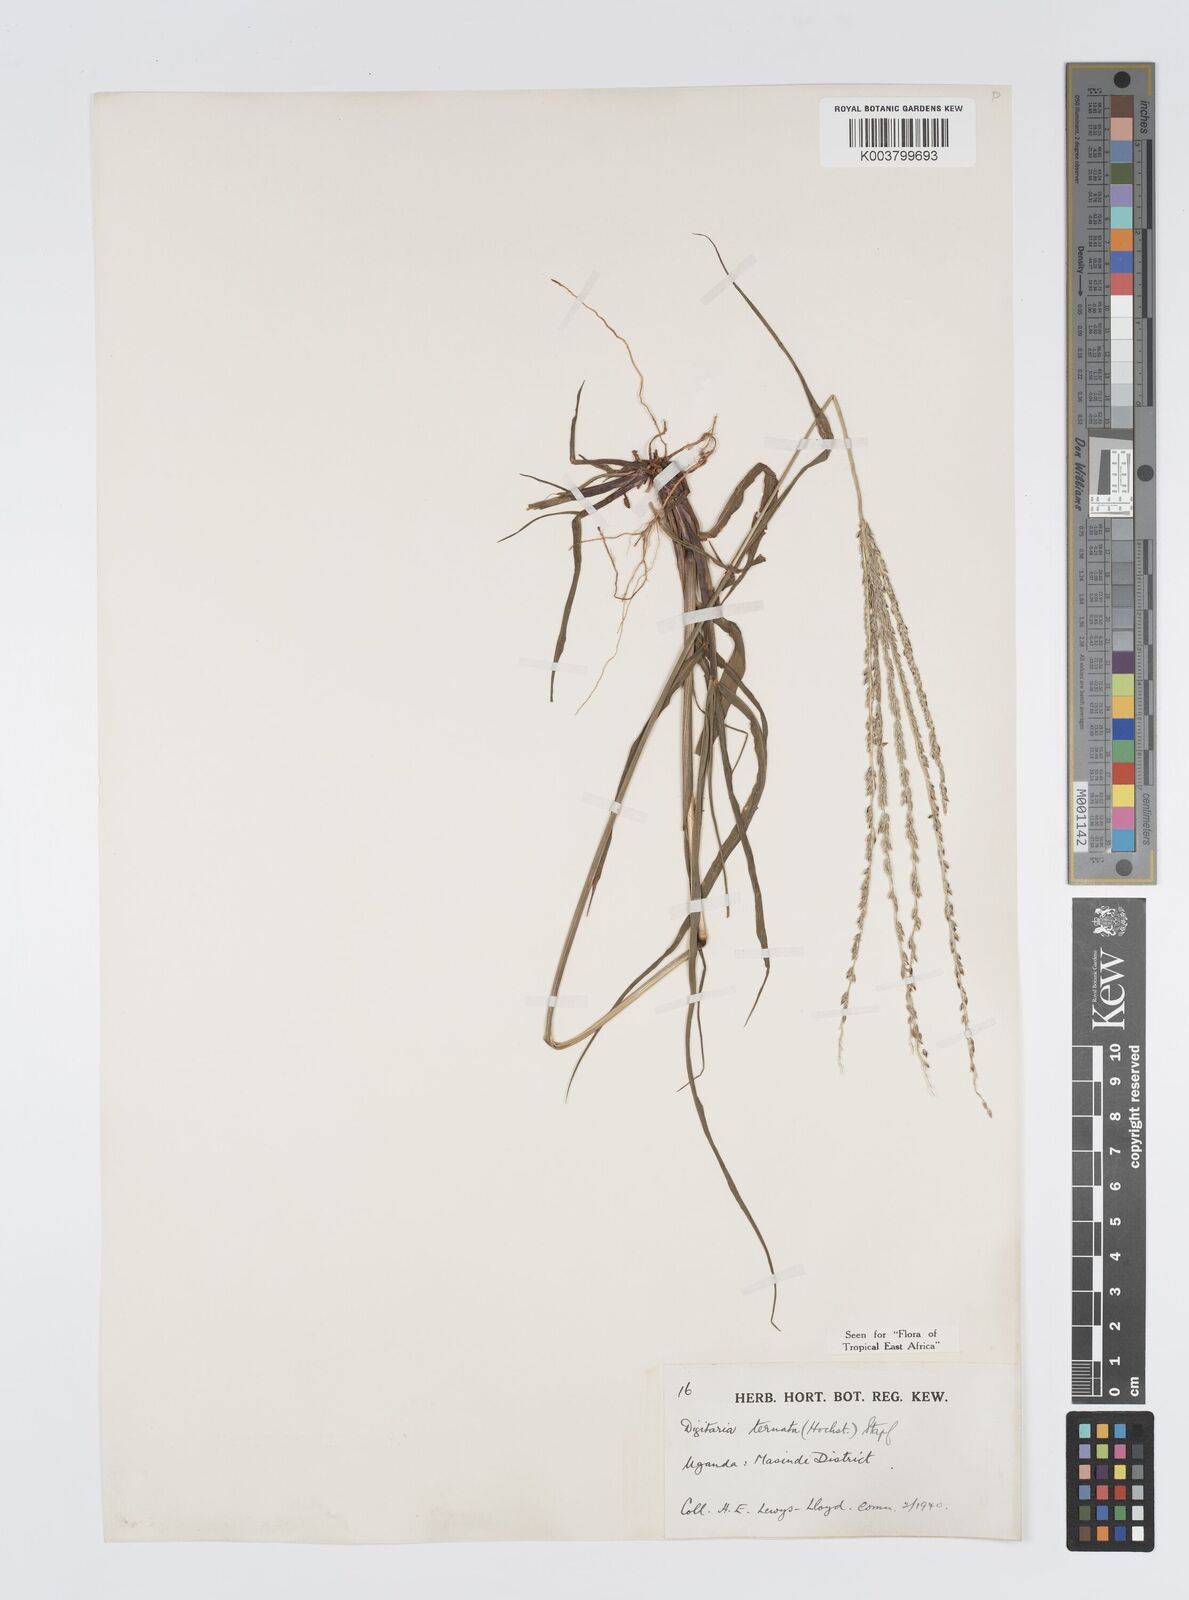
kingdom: Plantae
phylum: Tracheophyta
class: Liliopsida
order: Poales
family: Poaceae
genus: Digitaria
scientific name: Digitaria ternata
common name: Blackseed crabgrass
